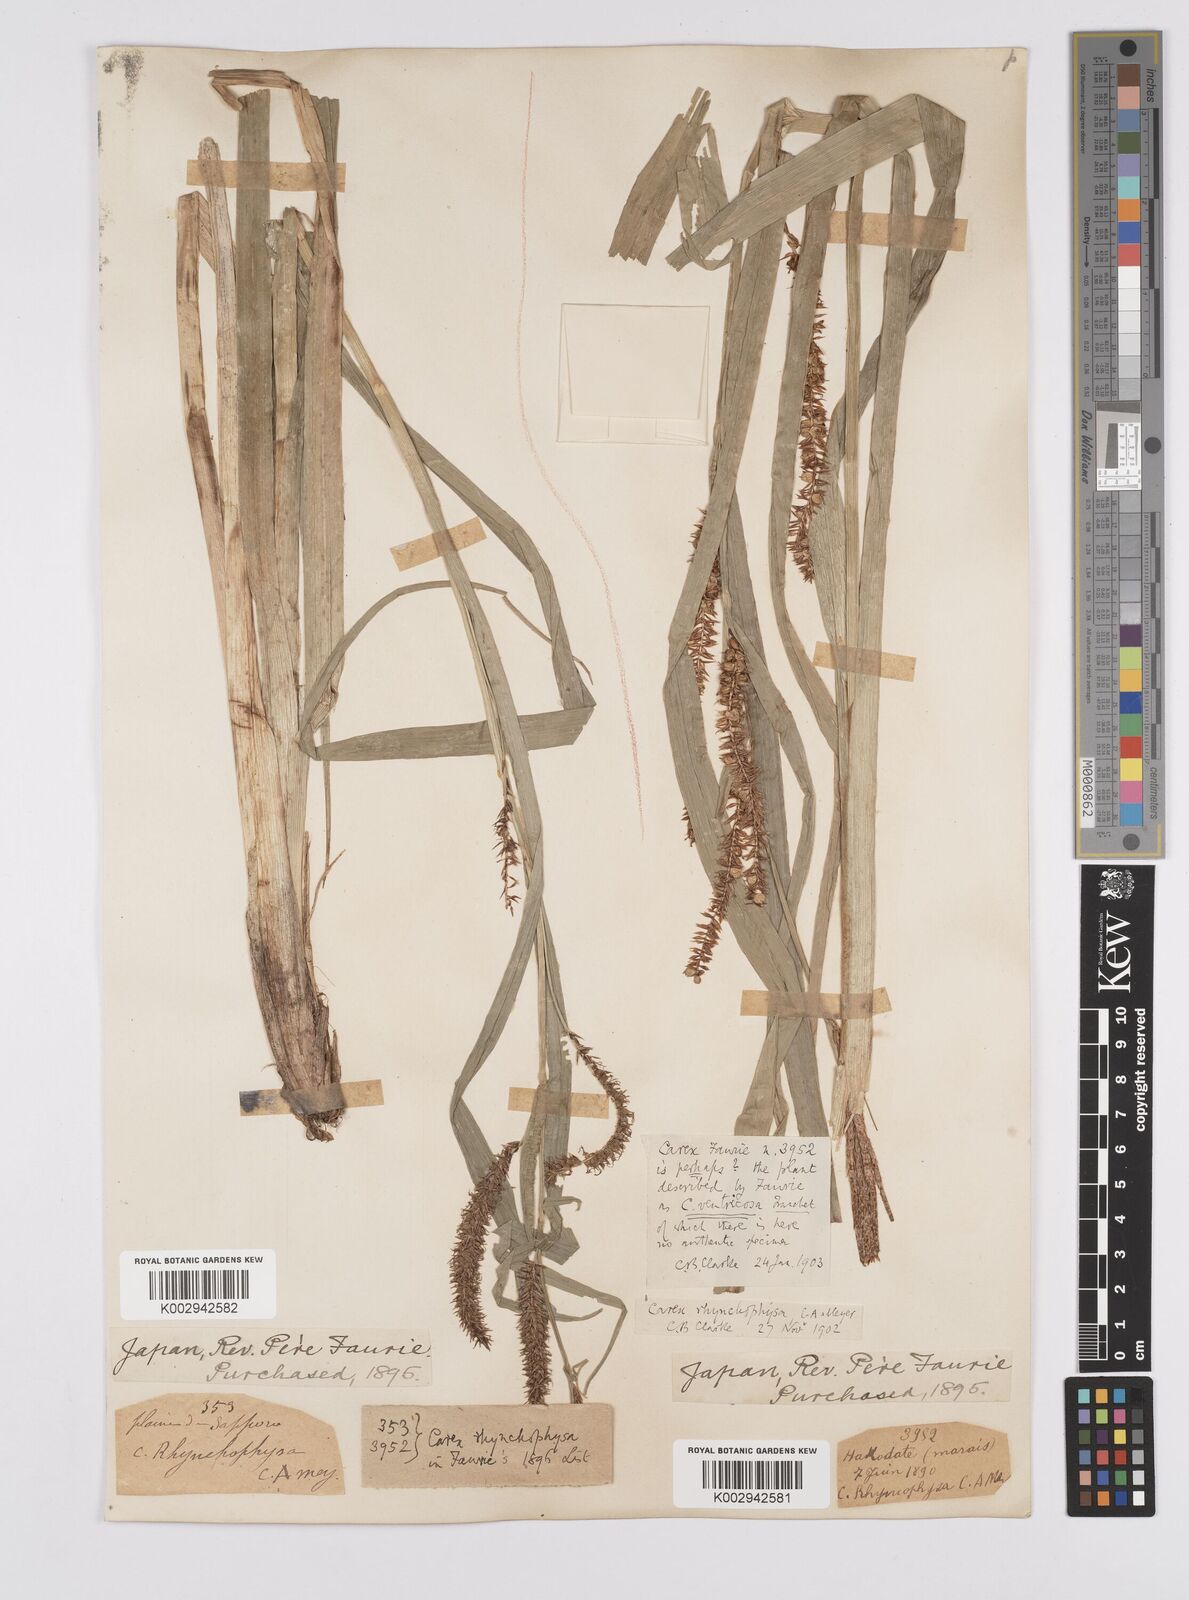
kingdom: Plantae
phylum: Tracheophyta
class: Liliopsida
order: Poales
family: Cyperaceae
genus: Carex
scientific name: Carex utriculata
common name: Beaked sedge
